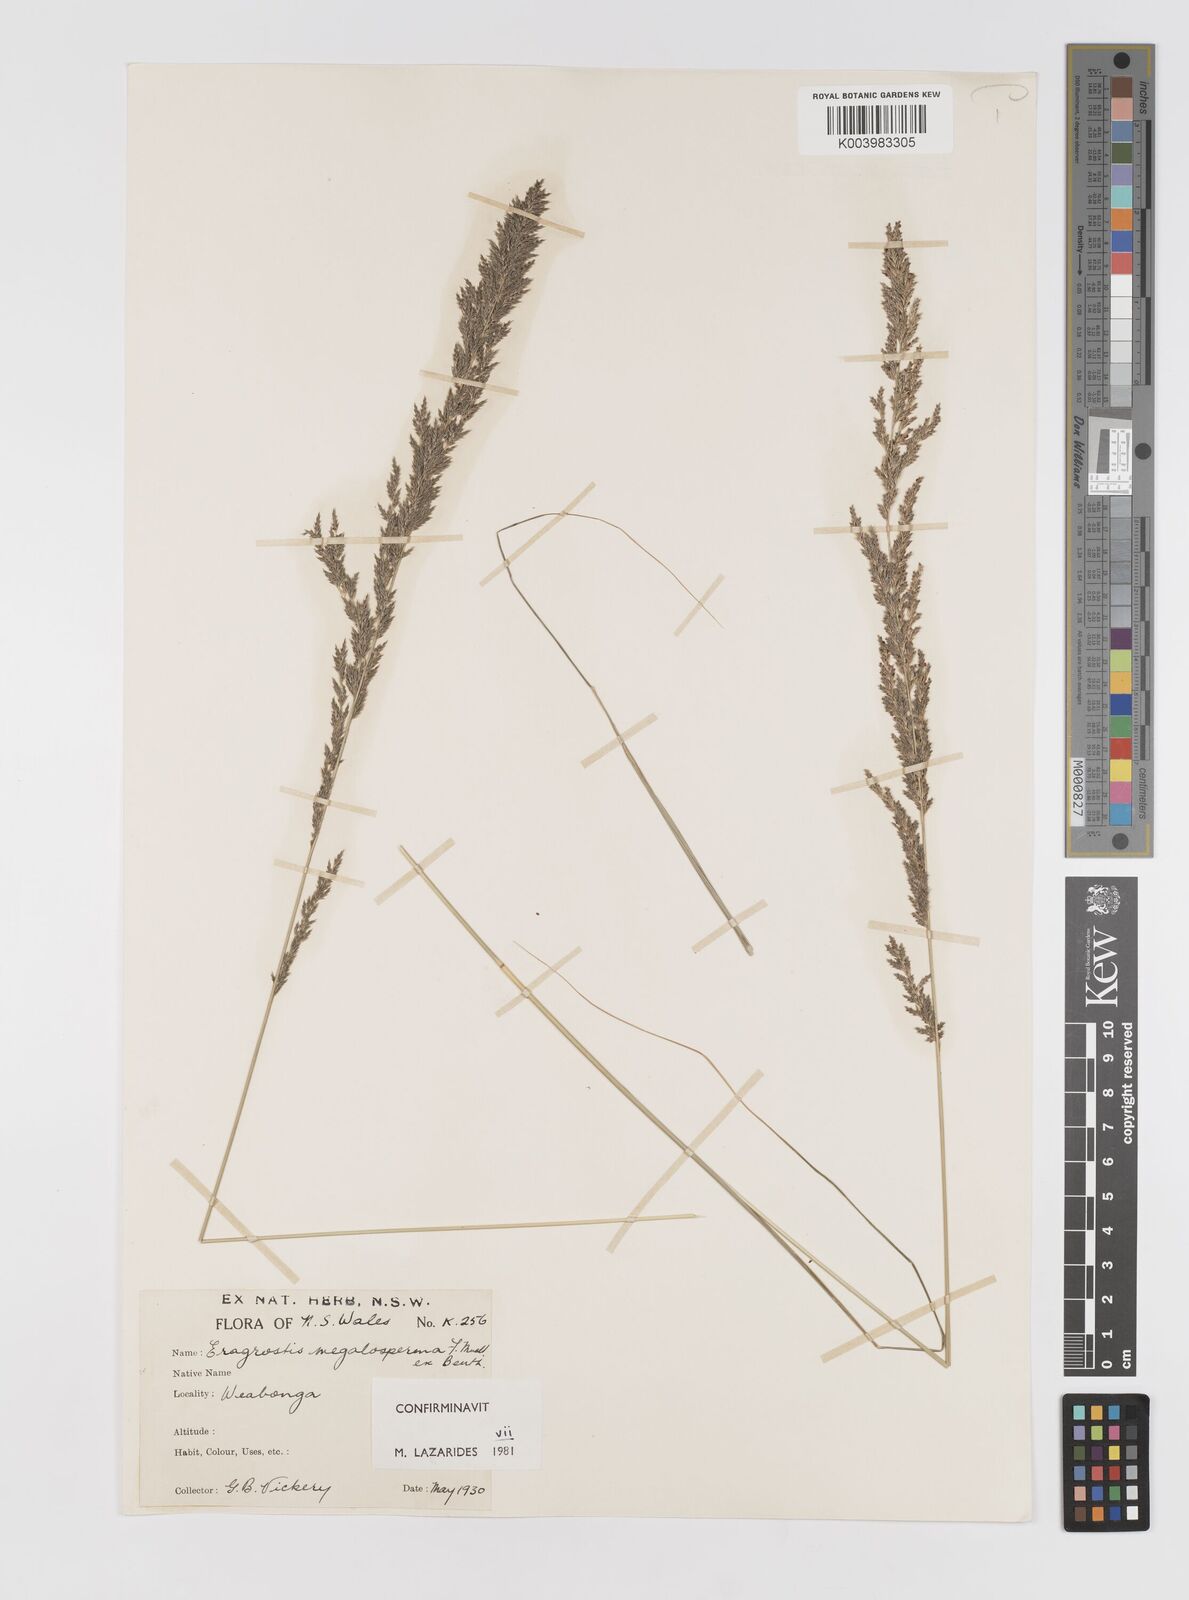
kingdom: Plantae
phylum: Tracheophyta
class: Liliopsida
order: Poales
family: Poaceae
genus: Sporobolus
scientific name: Sporobolus megalospermus
